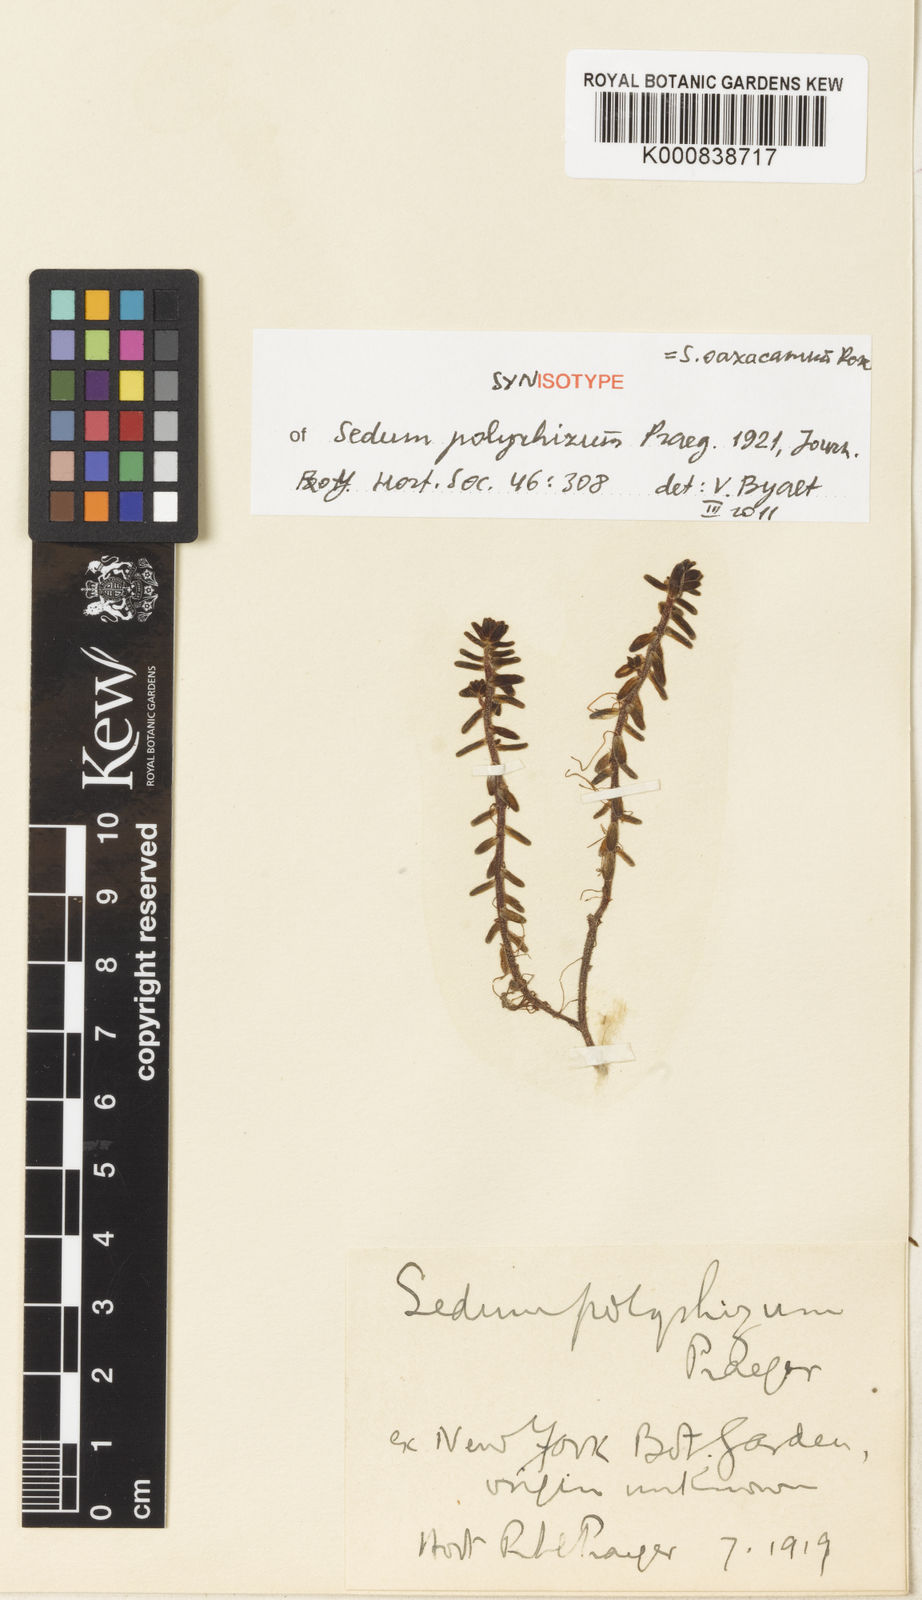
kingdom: Plantae
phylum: Tracheophyta
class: Magnoliopsida
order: Saxifragales
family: Crassulaceae
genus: Sedum
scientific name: Sedum oaxacanum
